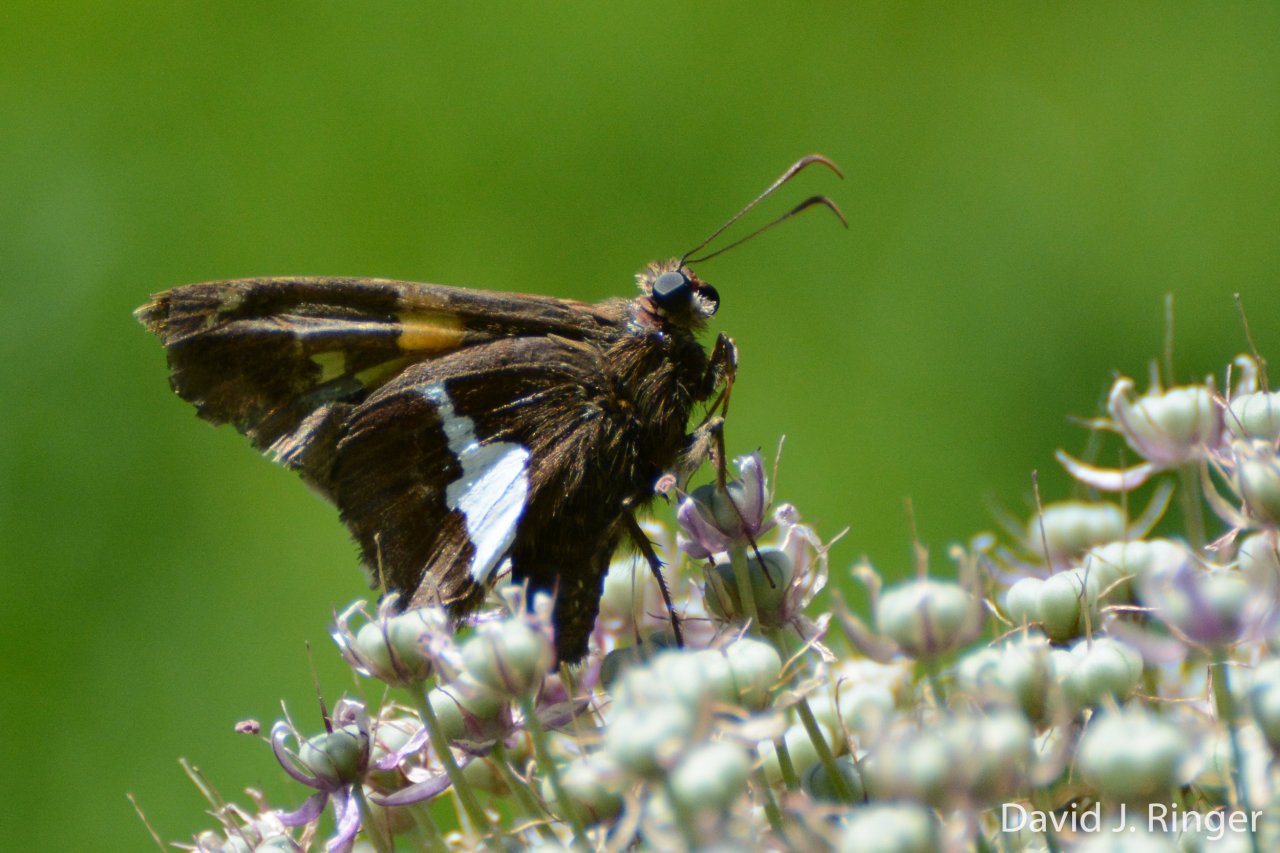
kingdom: Animalia
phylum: Arthropoda
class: Insecta
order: Lepidoptera
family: Hesperiidae
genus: Epargyreus
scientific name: Epargyreus clarus
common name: Silver-spotted Skipper
